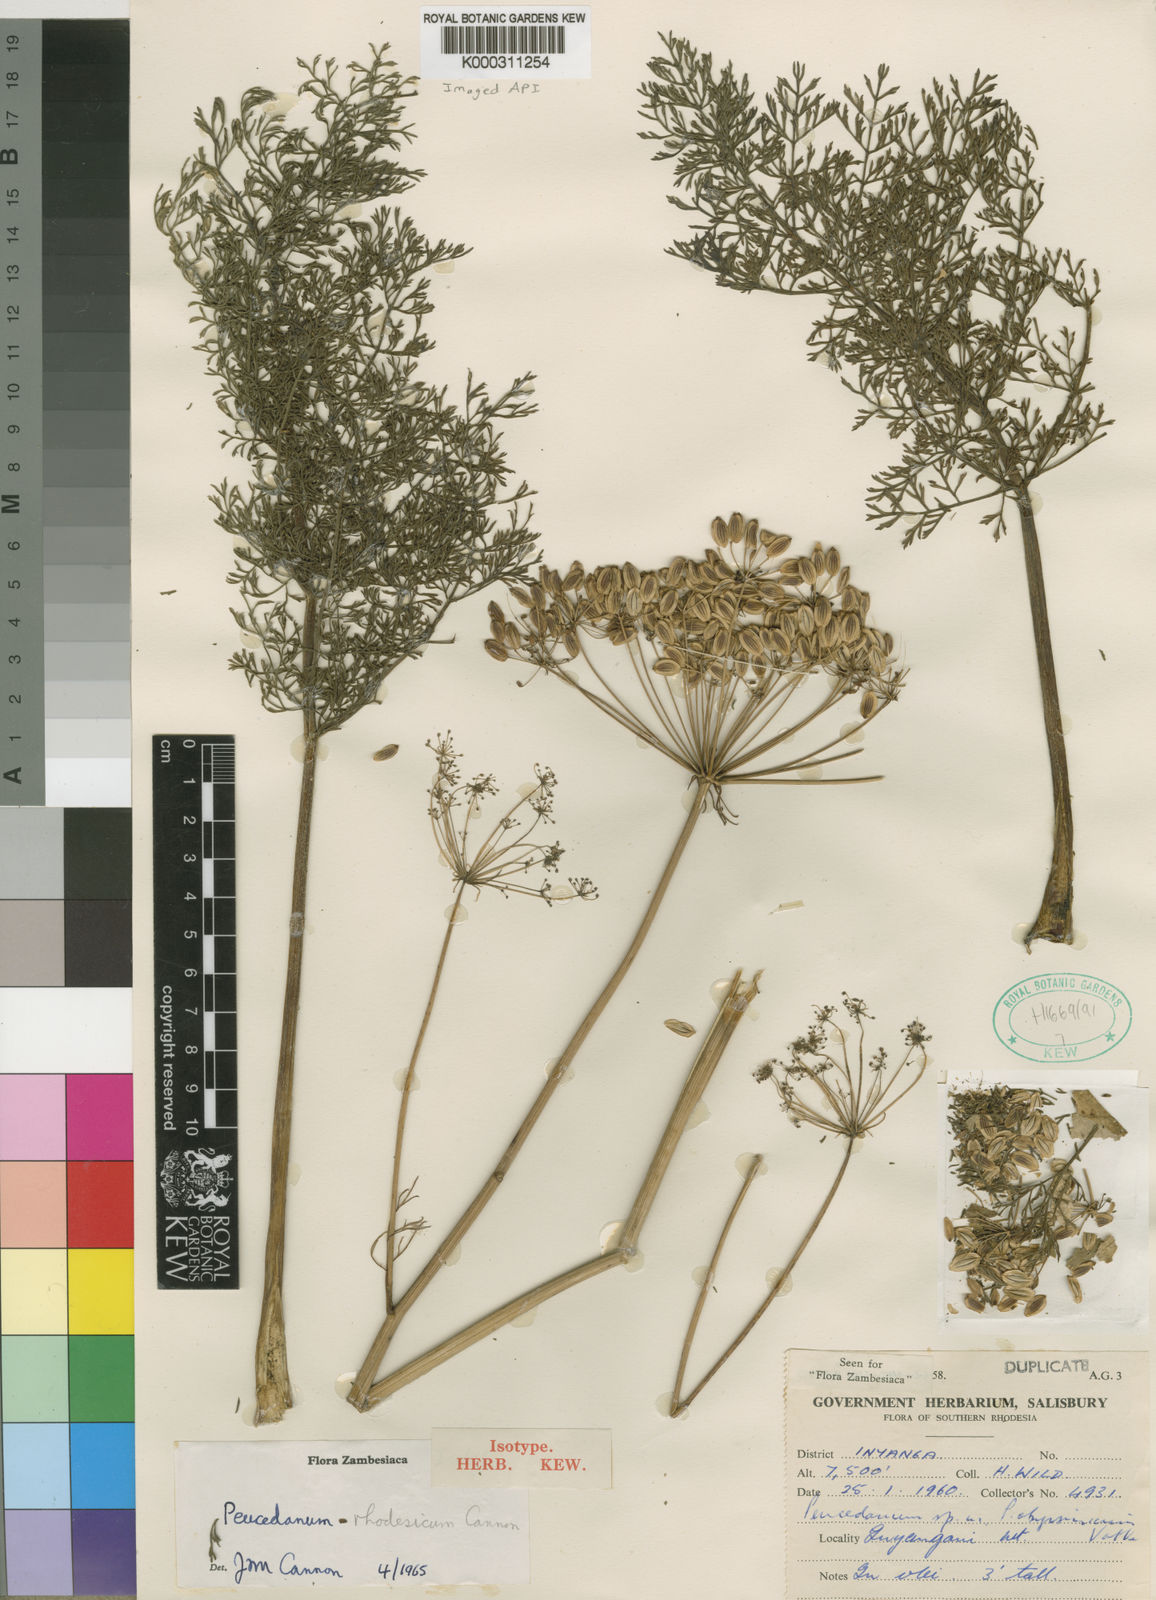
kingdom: Plantae
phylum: Tracheophyta
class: Magnoliopsida
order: Apiales
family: Apiaceae
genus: Afrosciadium
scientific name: Afrosciadium rhodesicum
